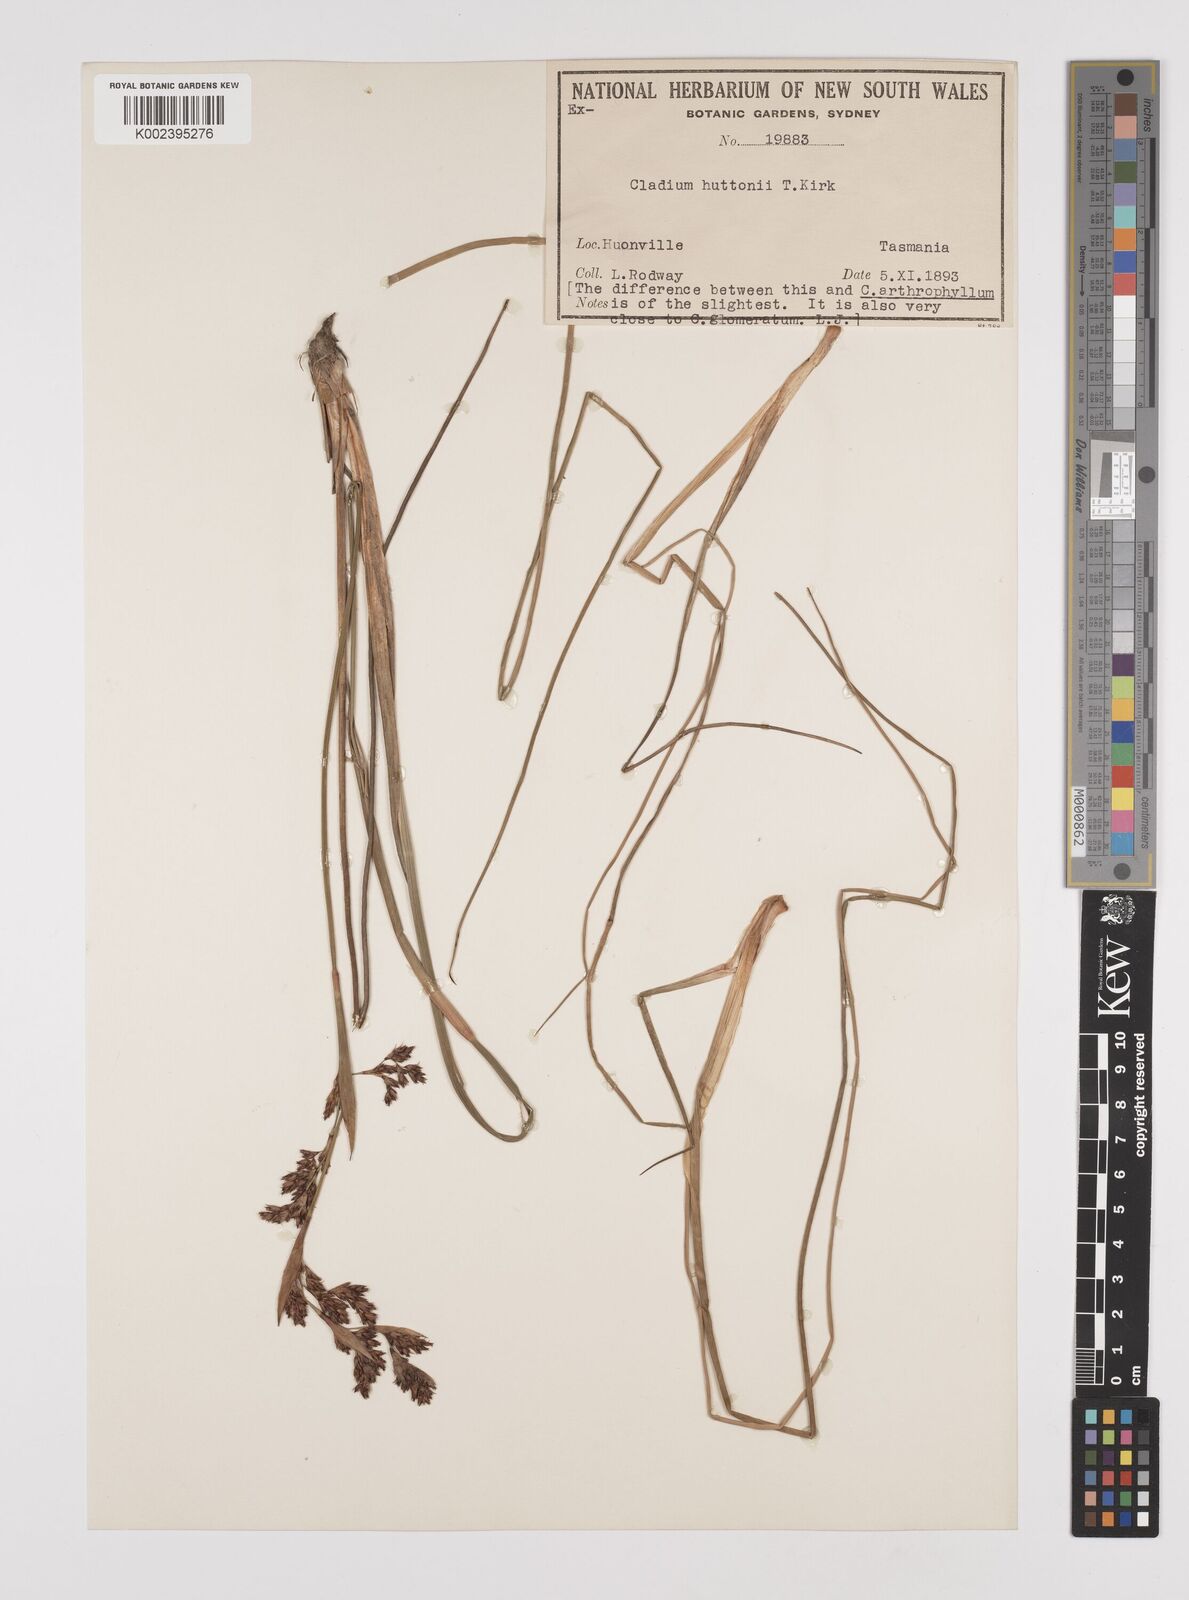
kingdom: Plantae
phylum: Tracheophyta
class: Liliopsida
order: Poales
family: Cyperaceae
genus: Machaerina
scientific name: Machaerina huttonii
